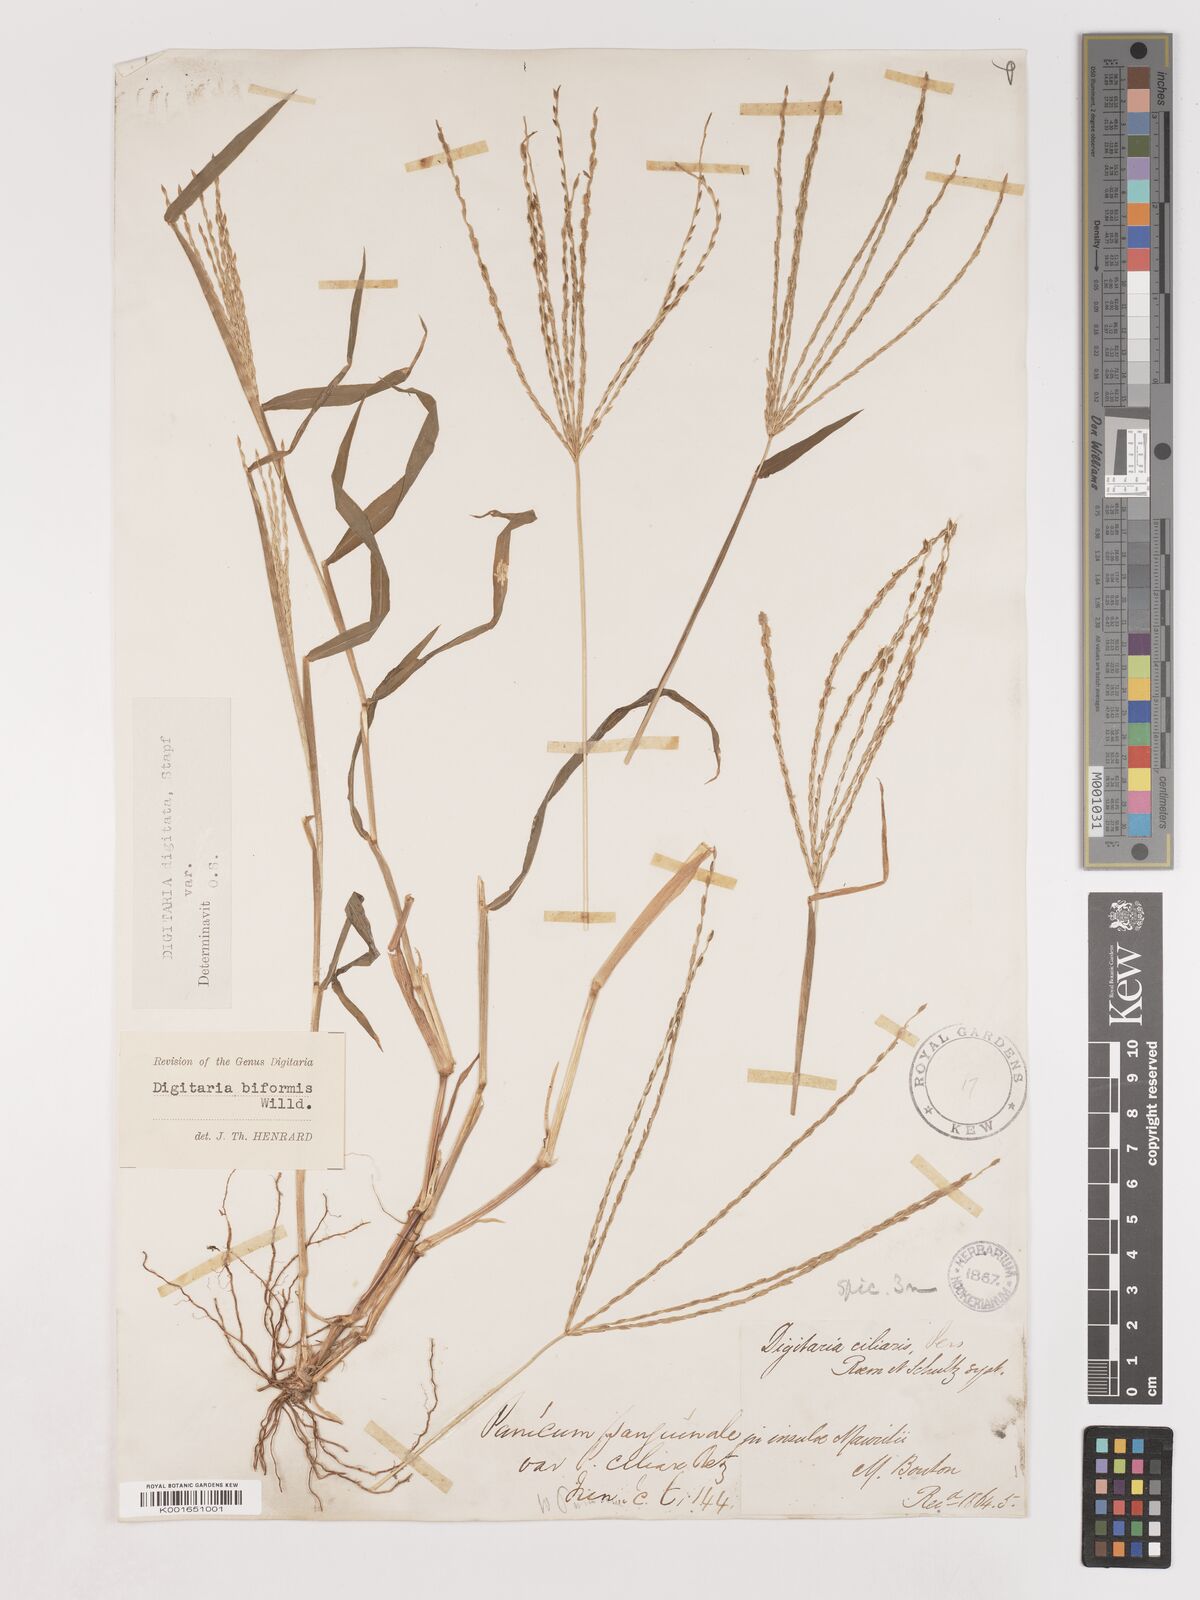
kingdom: Plantae
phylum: Tracheophyta
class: Liliopsida
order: Poales
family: Poaceae
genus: Digitaria
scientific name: Digitaria ciliaris
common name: Tropical finger-grass
